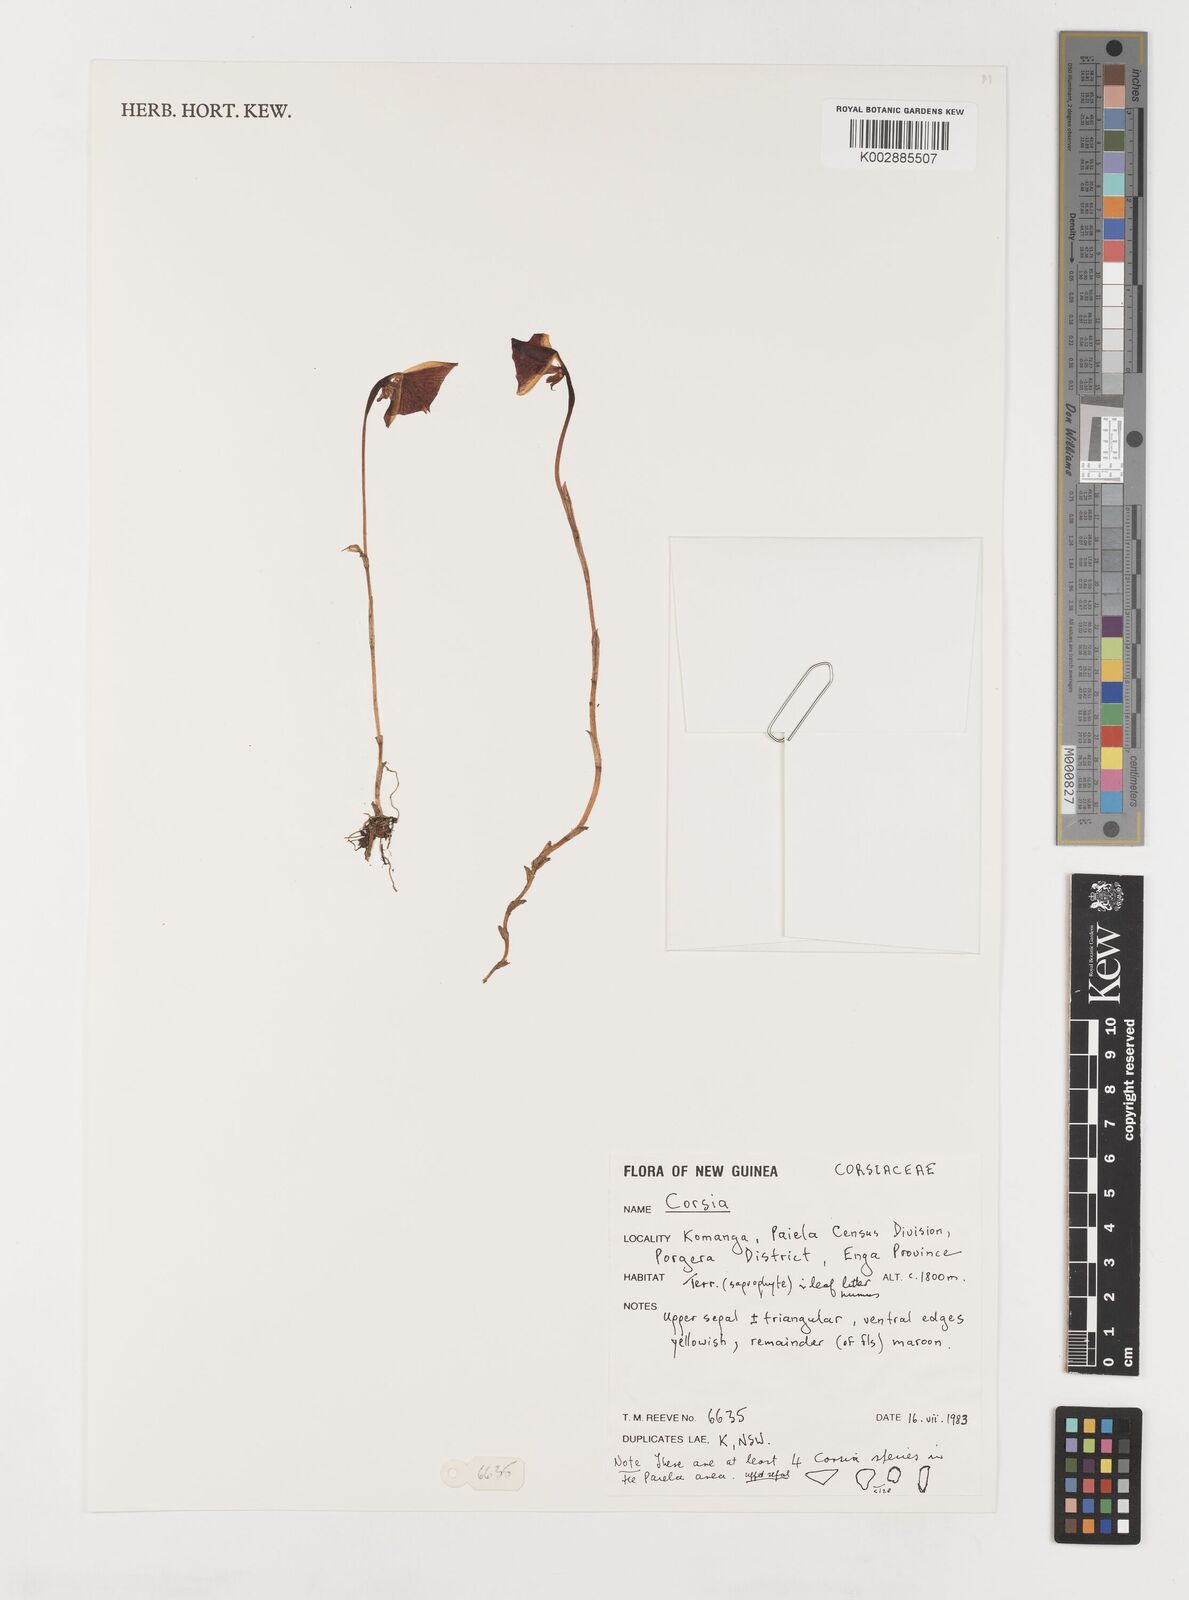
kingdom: Plantae
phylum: Tracheophyta
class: Liliopsida
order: Liliales
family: Corsiaceae
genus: Corsia
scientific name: Corsia
